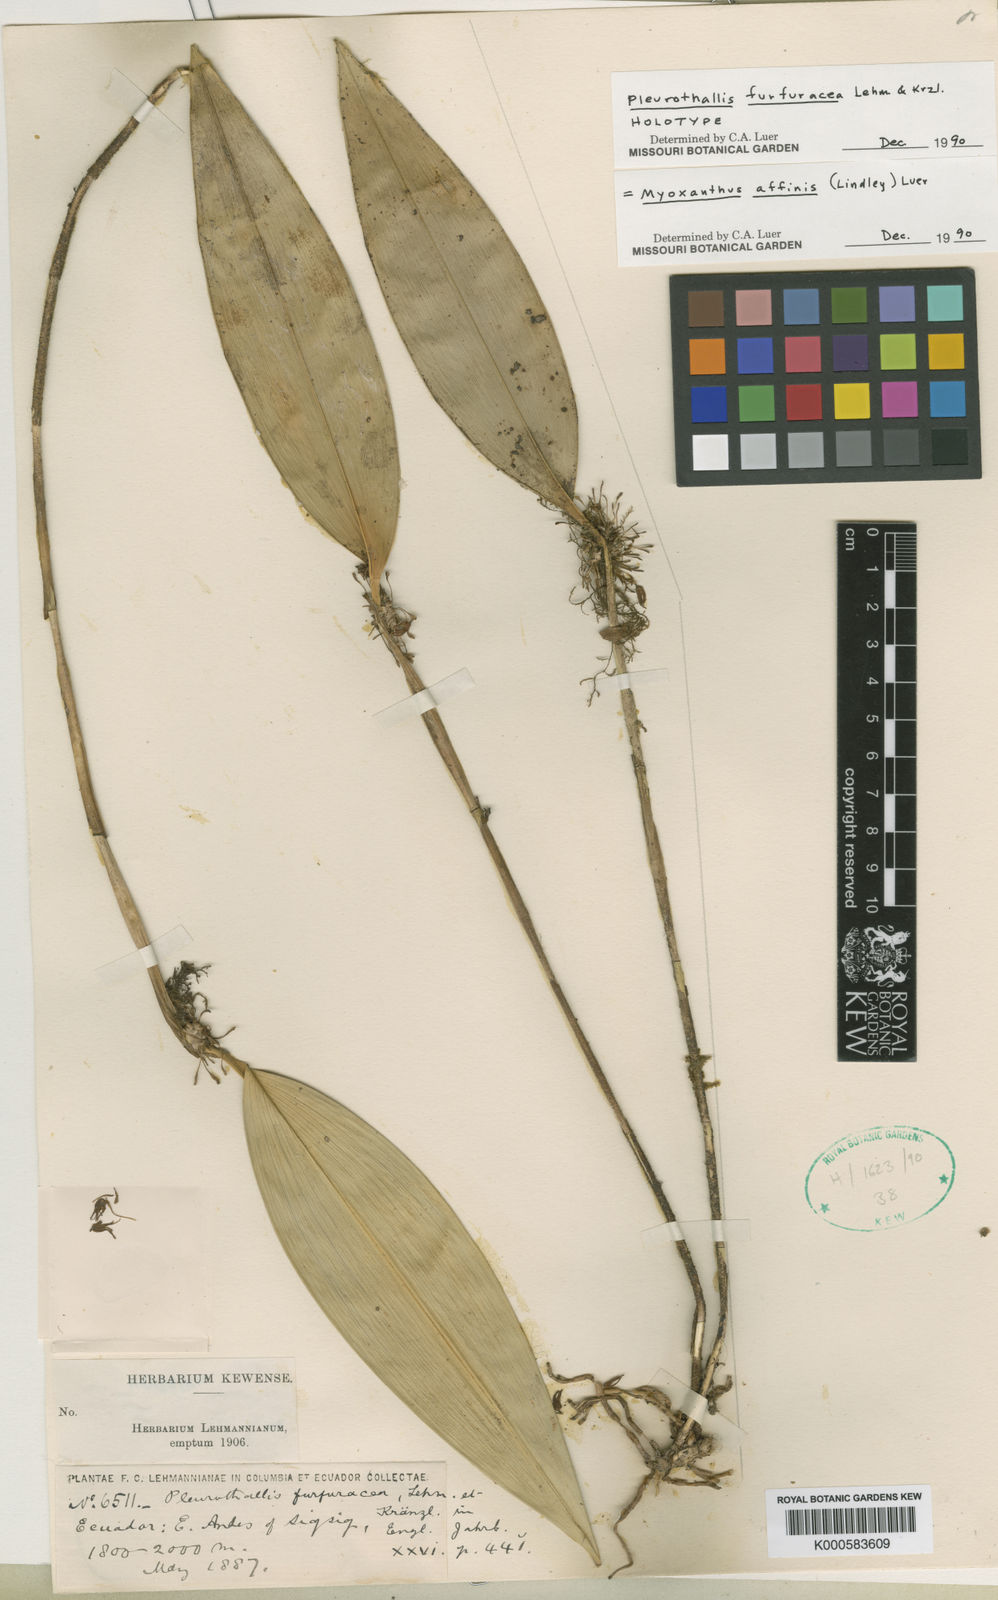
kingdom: Plantae
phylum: Tracheophyta
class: Liliopsida
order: Asparagales
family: Orchidaceae
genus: Myoxanthus
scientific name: Myoxanthus
